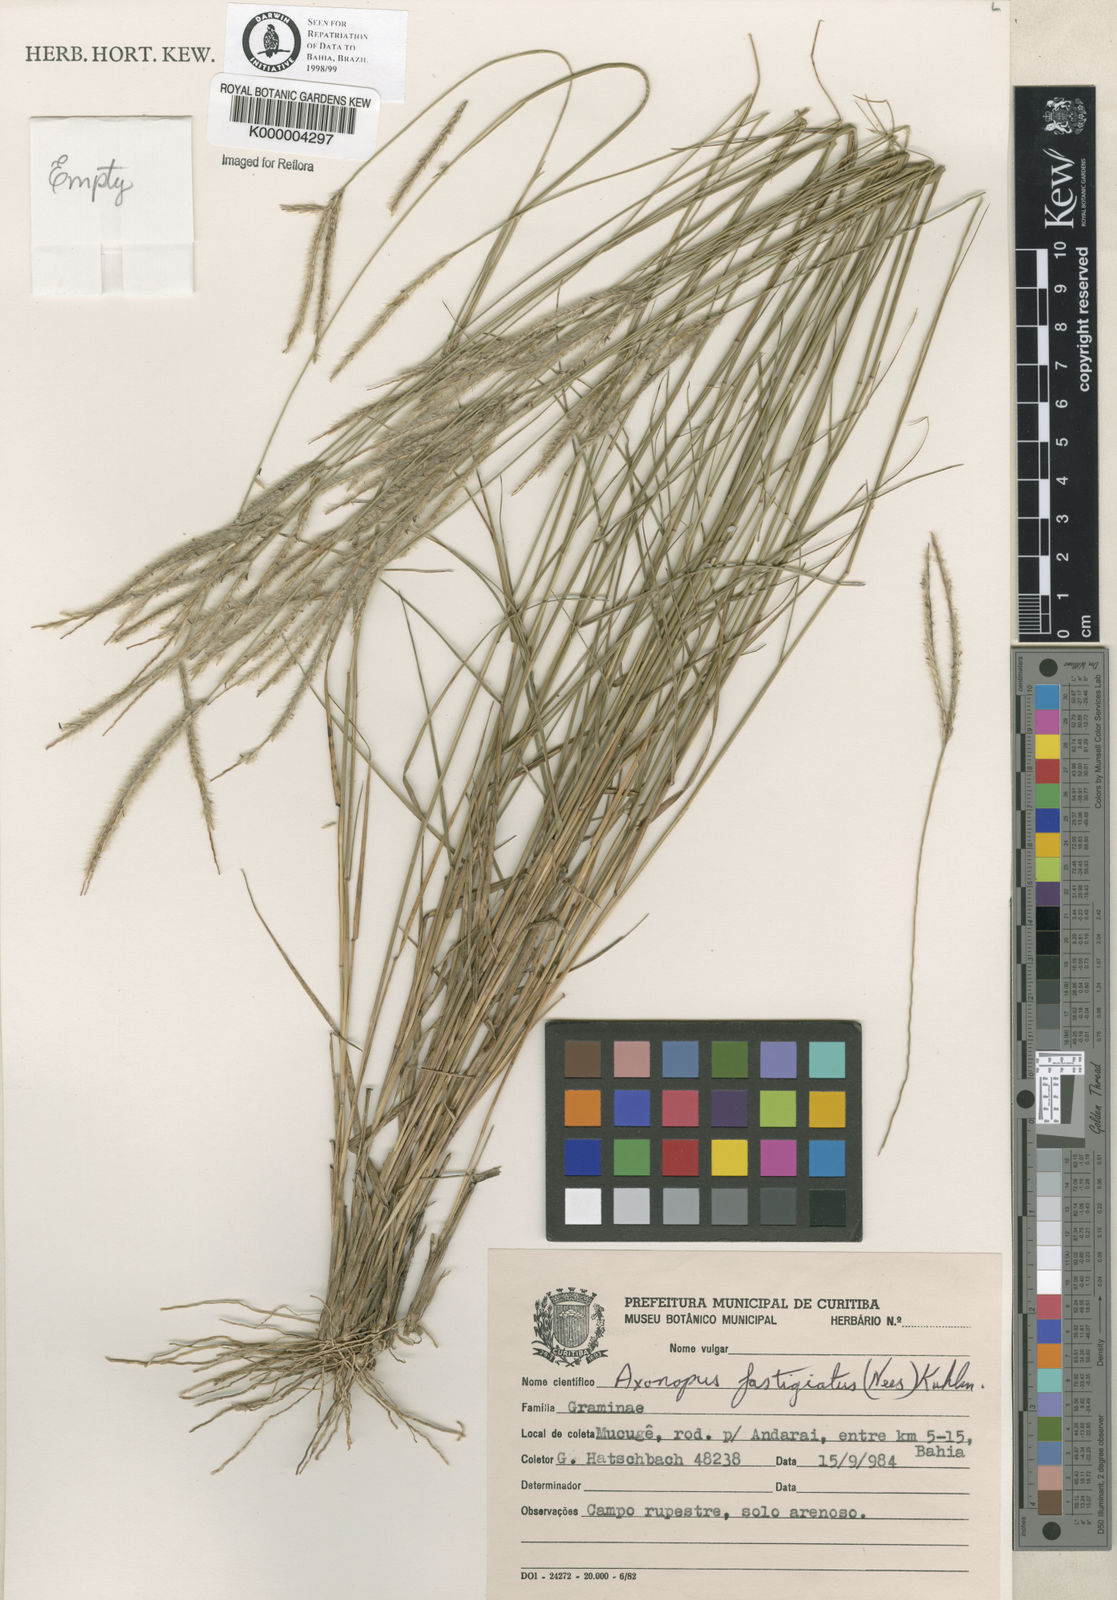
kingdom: Plantae
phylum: Tracheophyta
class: Liliopsida
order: Poales
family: Poaceae
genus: Axonopus
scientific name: Axonopus
